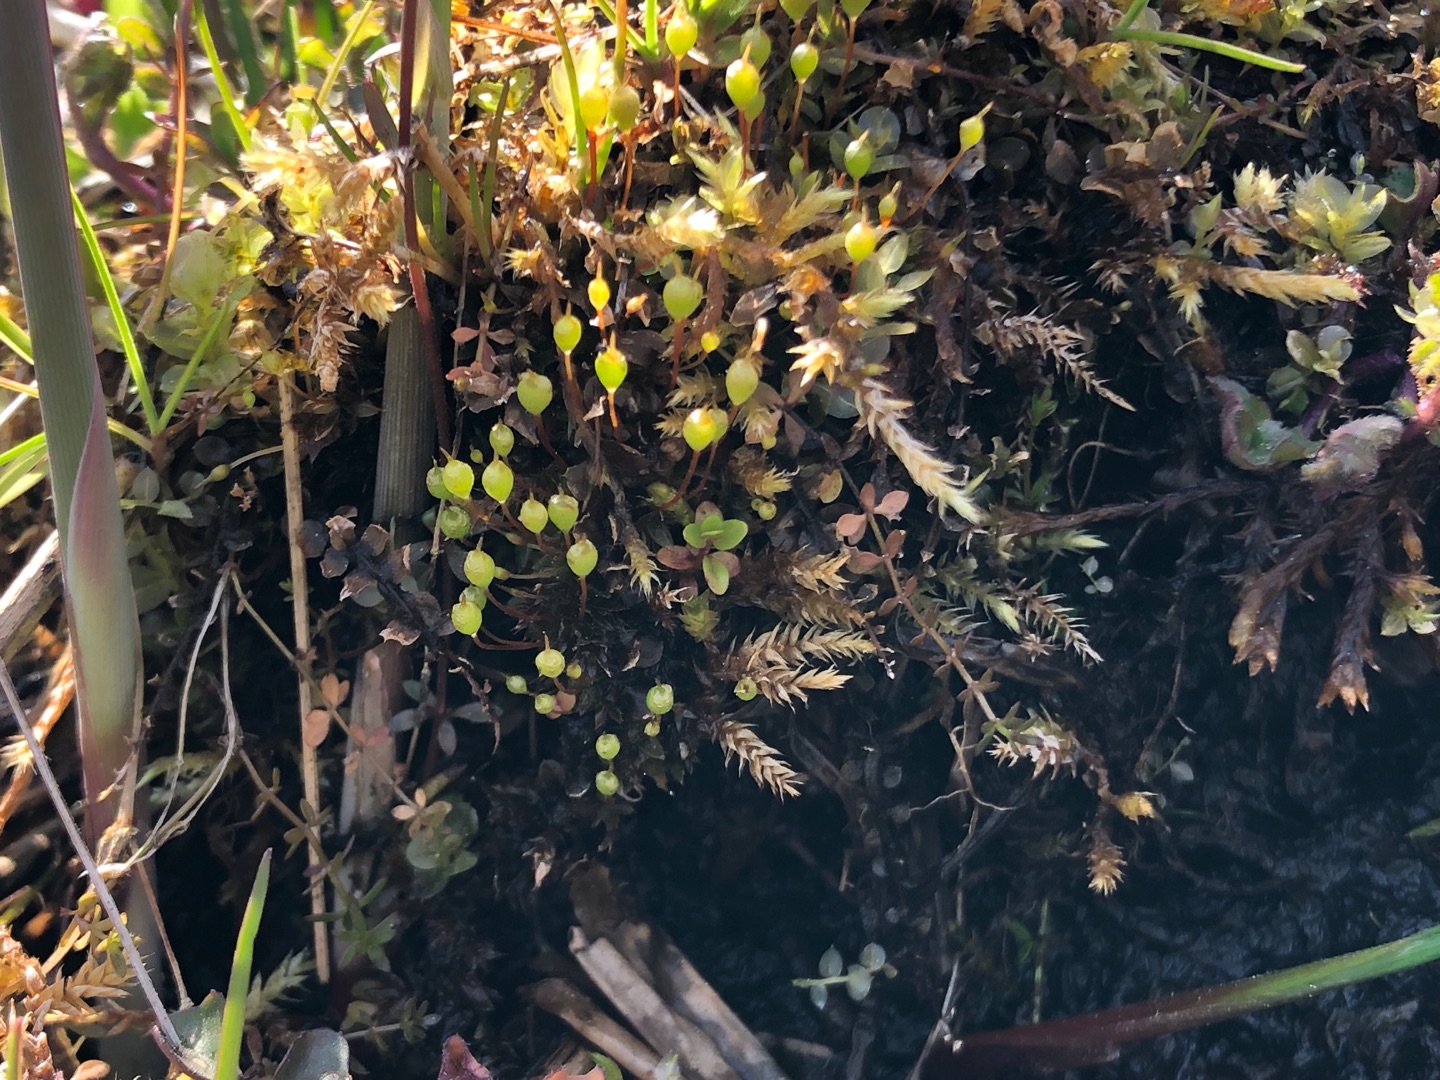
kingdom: Plantae
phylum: Bryophyta
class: Bryopsida
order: Funariales
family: Funariaceae
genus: Physcomitrium
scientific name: Physcomitrium pyriforme
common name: Almindelig pærekapsel
